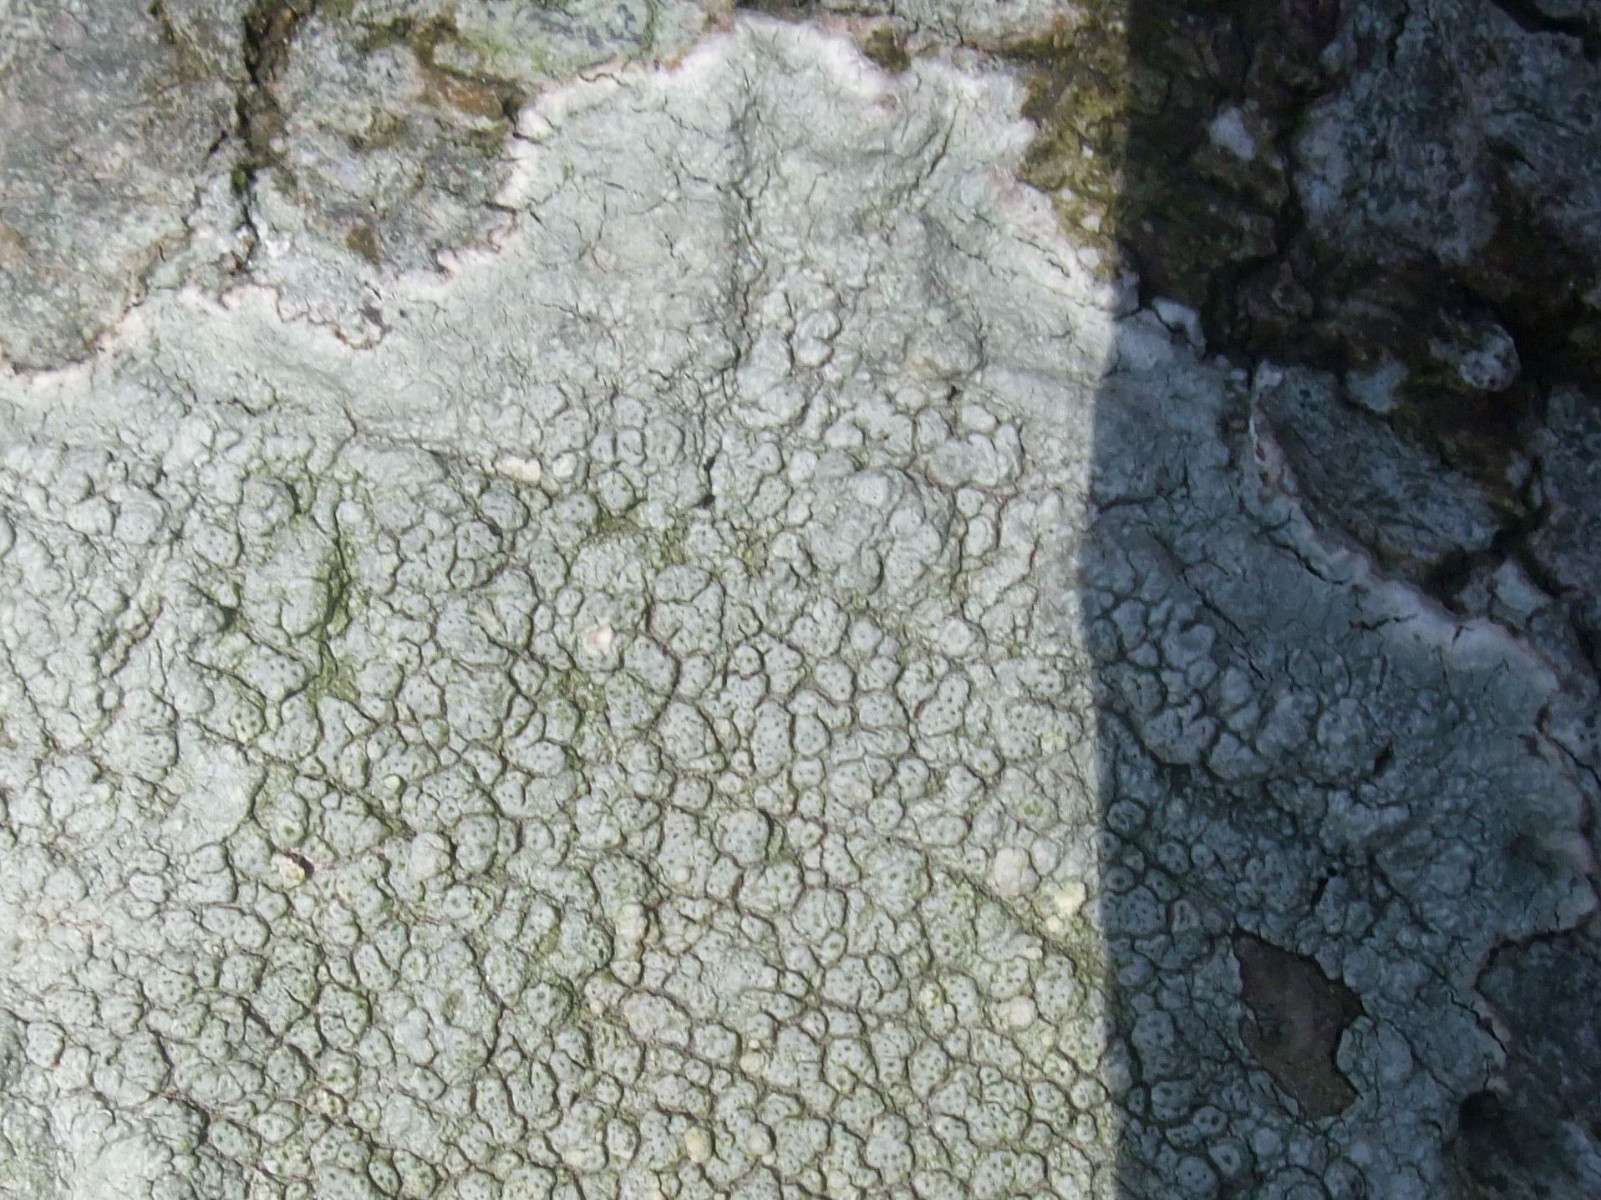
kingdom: Fungi
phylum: Ascomycota
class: Lecanoromycetes
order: Pertusariales
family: Pertusariaceae
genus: Pertusaria
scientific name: Pertusaria pertusa
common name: almindelig prikvortelav
